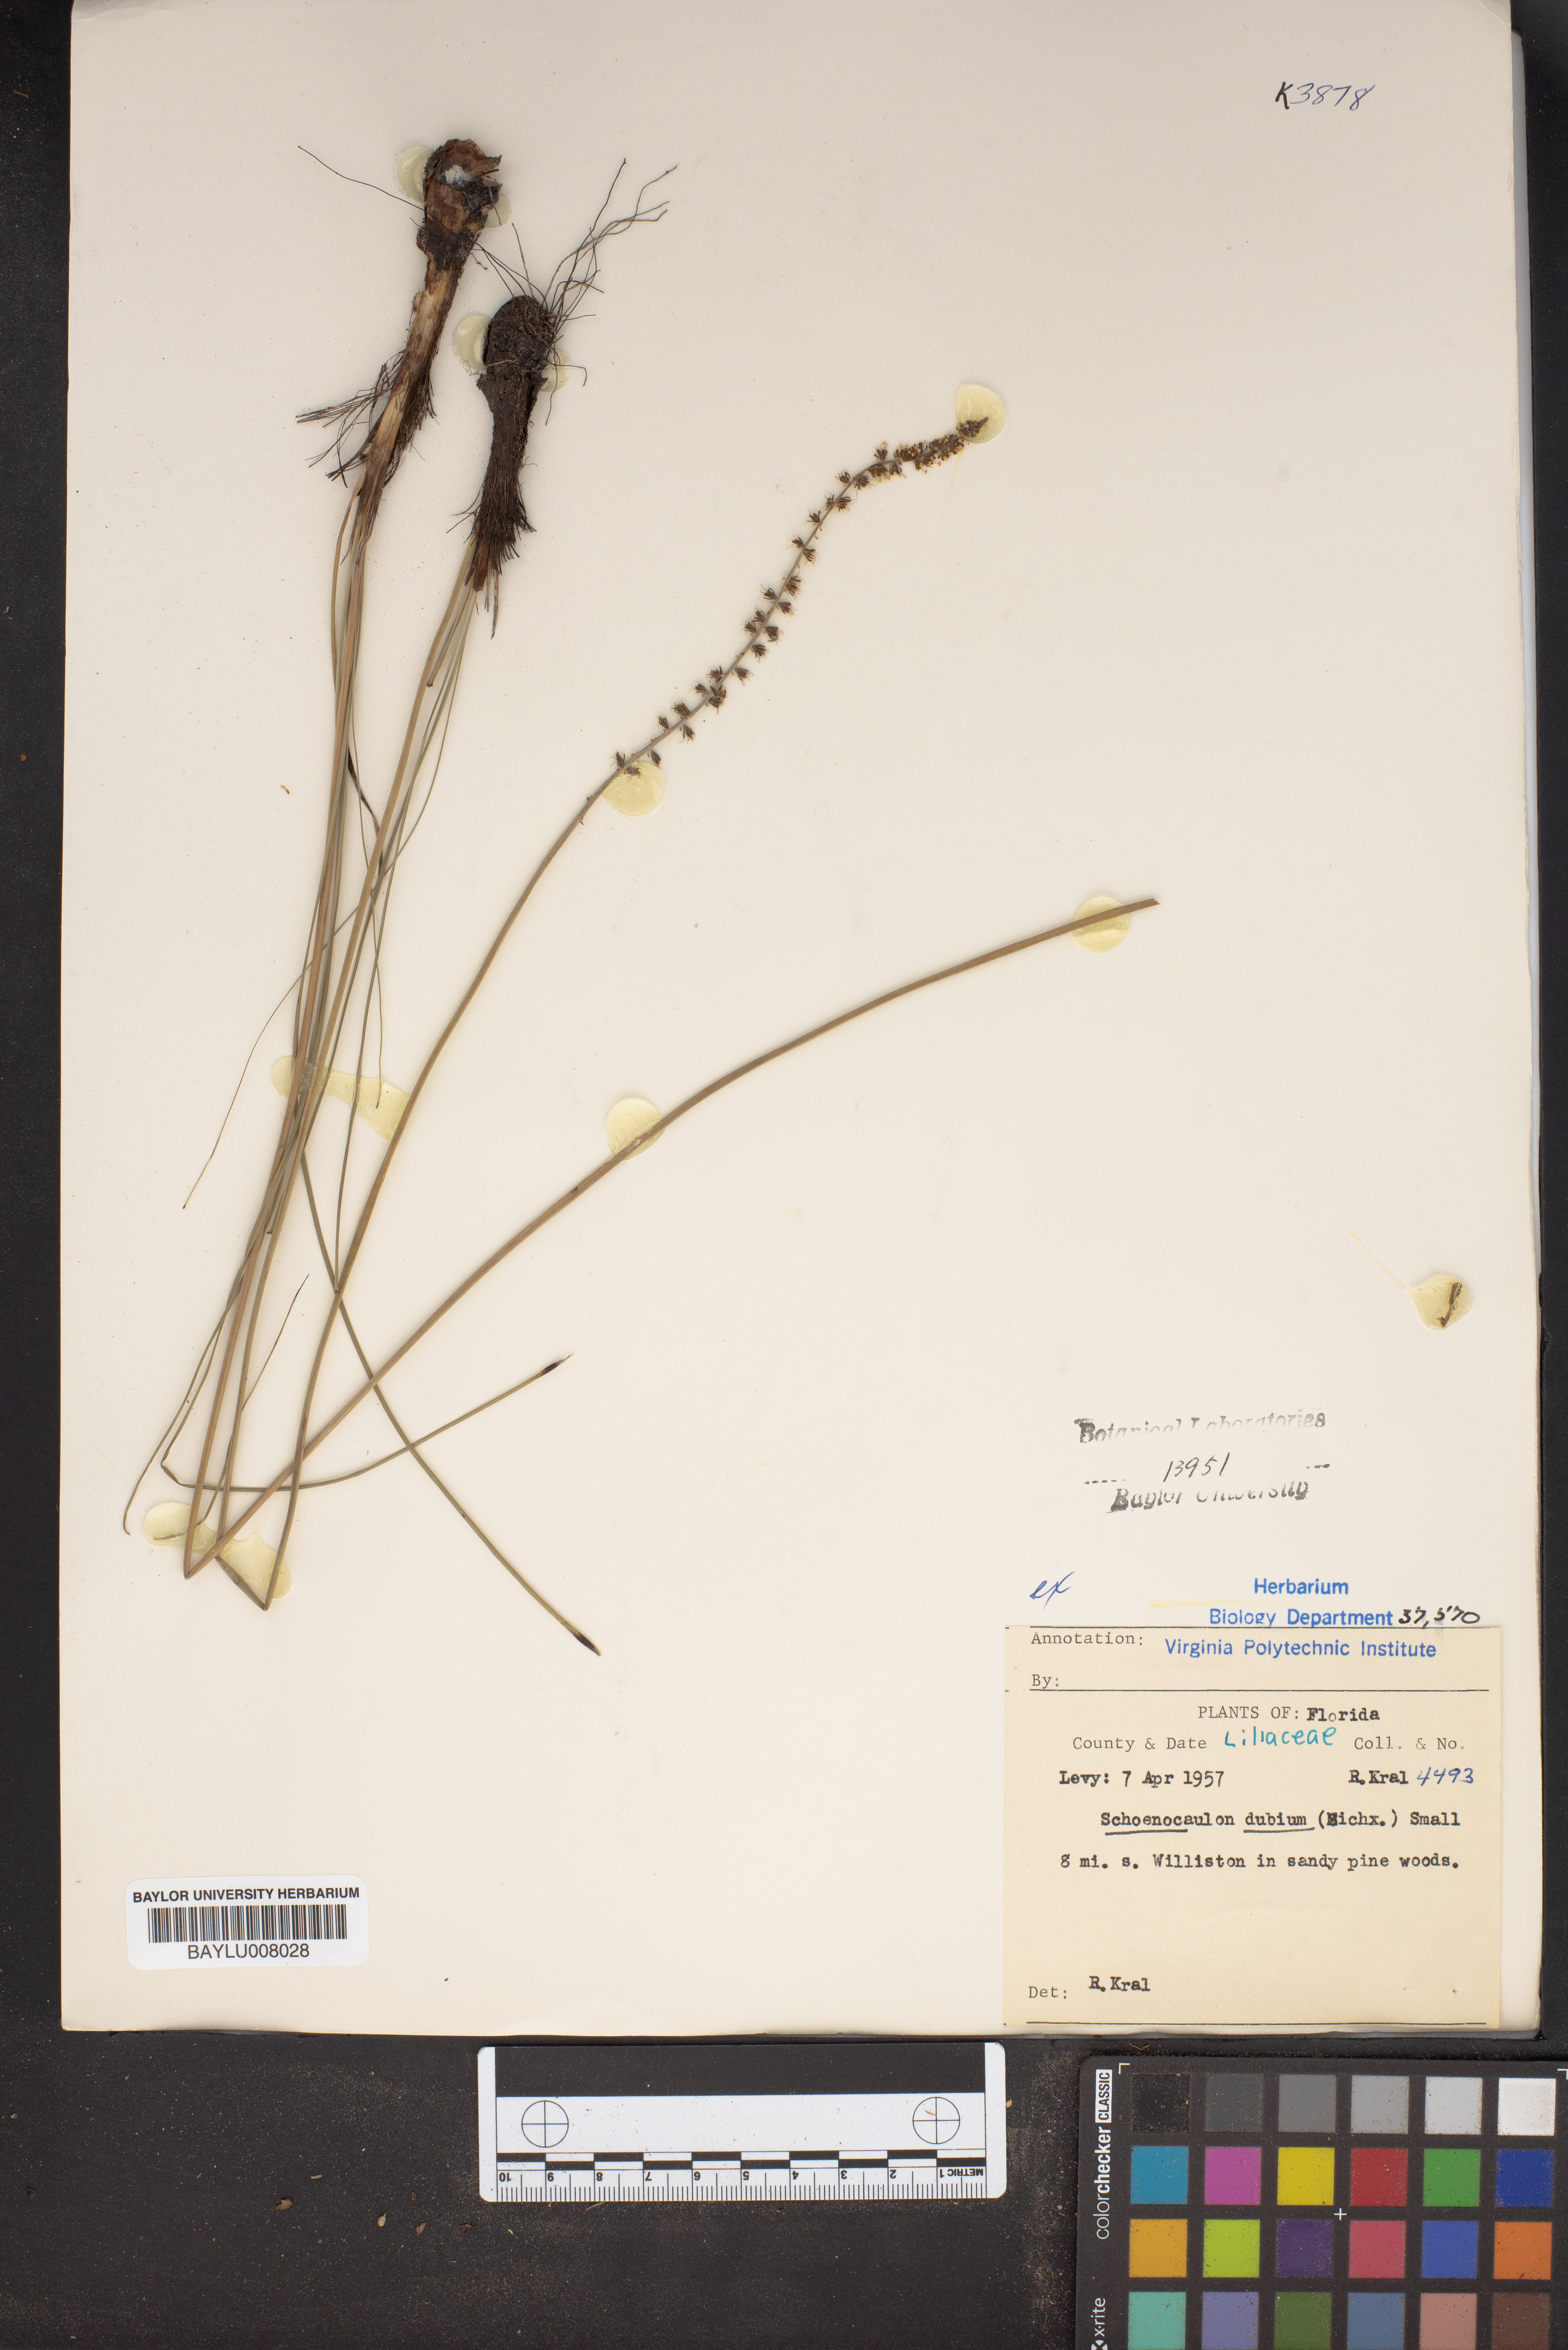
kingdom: Plantae
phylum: Tracheophyta
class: Liliopsida
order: Liliales
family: Melanthiaceae
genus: Schoenocaulon
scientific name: Schoenocaulon dubium
